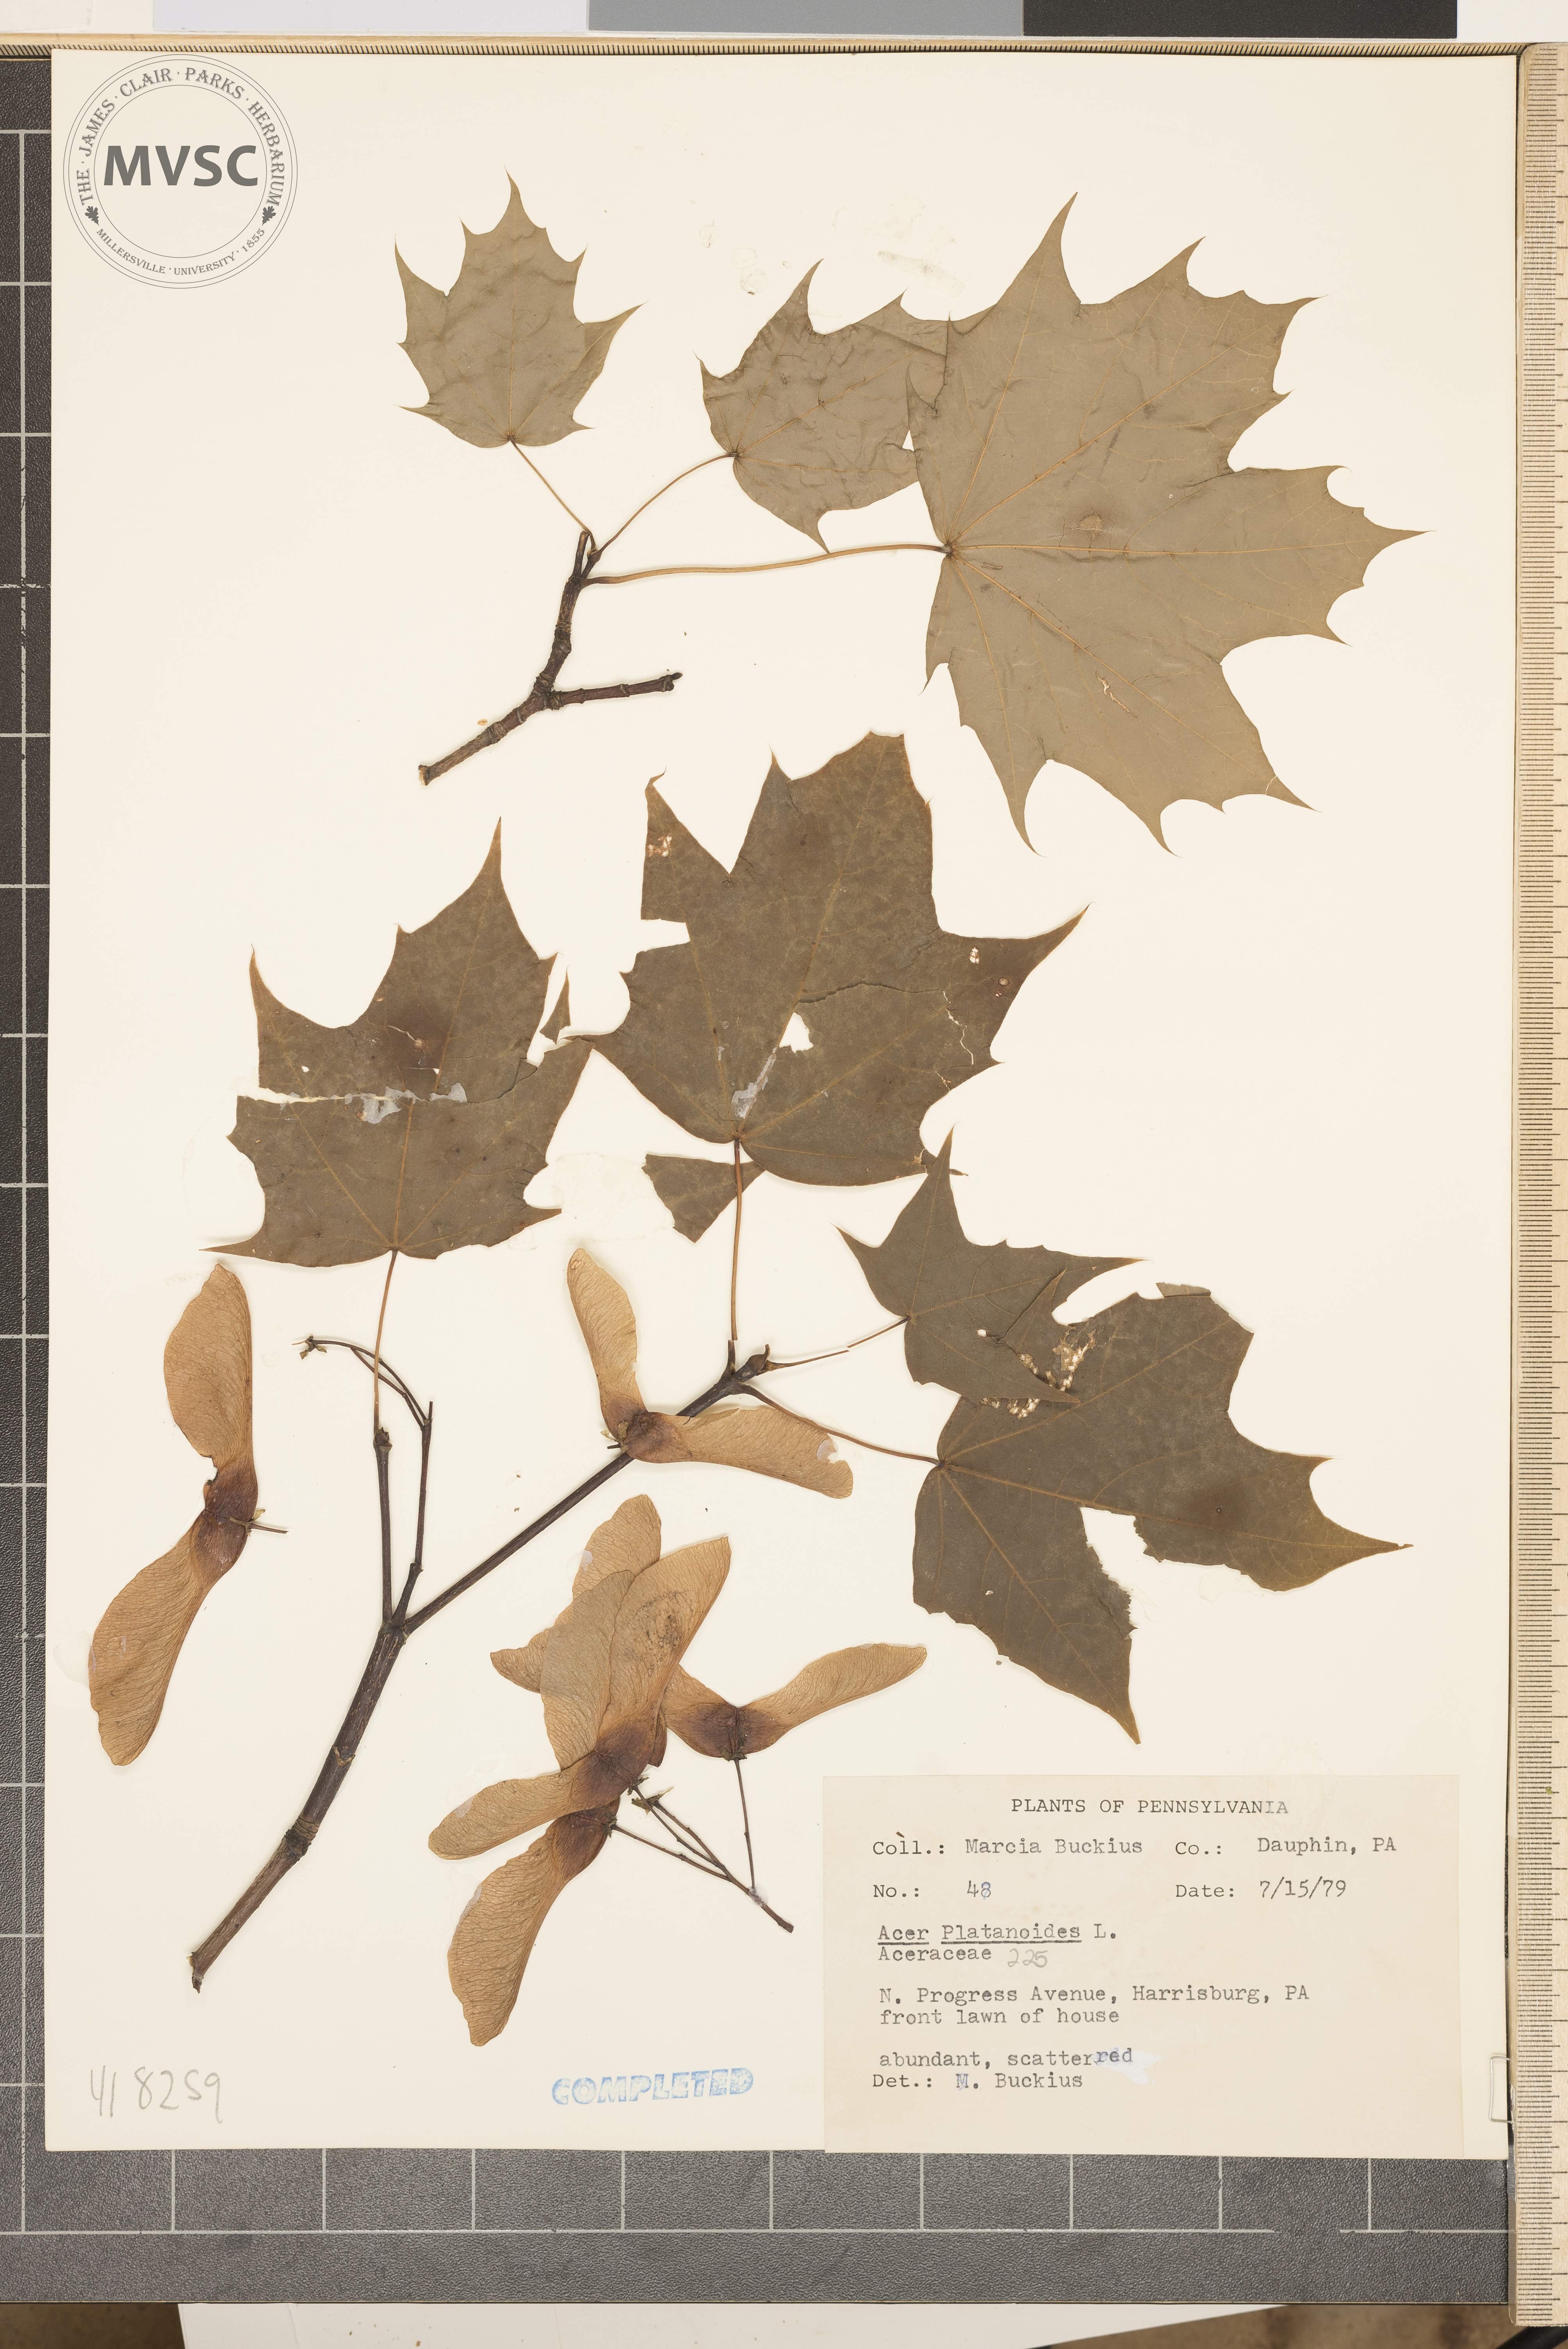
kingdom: Plantae
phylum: Tracheophyta
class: Magnoliopsida
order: Sapindales
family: Sapindaceae
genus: Acer
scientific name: Acer platanoides
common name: Norway maple
